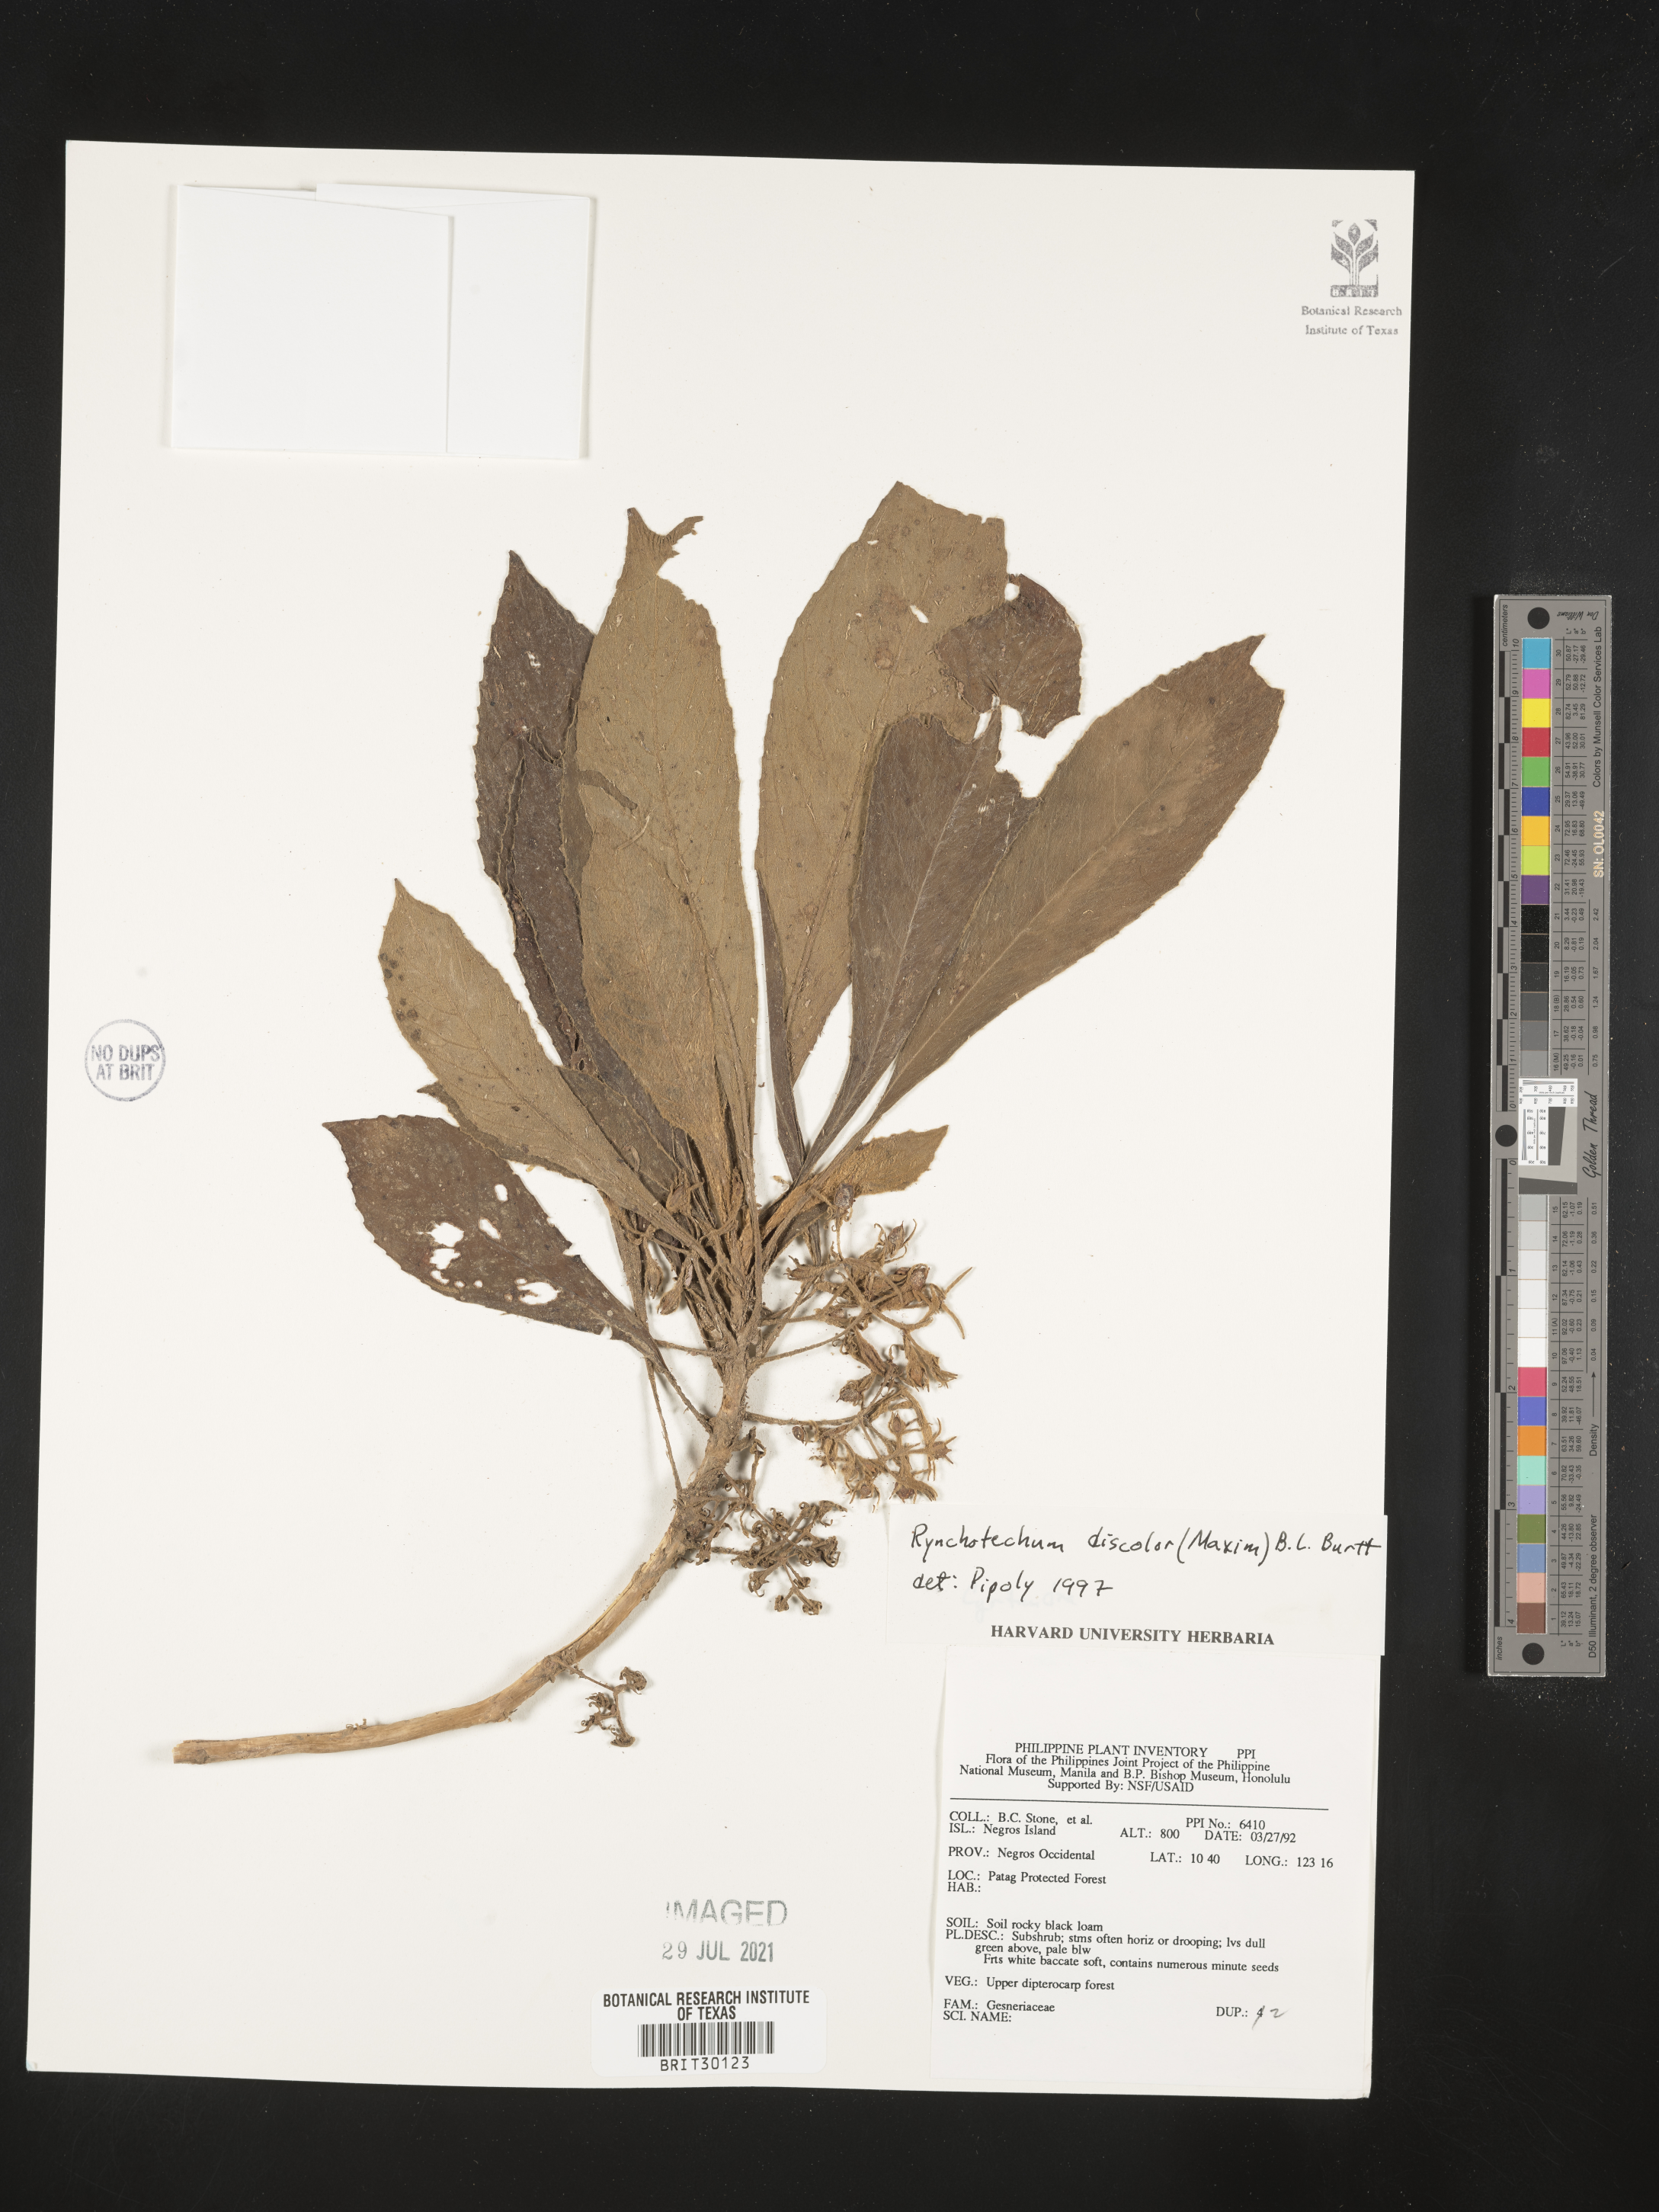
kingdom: Plantae
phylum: Tracheophyta
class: Magnoliopsida
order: Lamiales
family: Gesneriaceae
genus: Rhynchotechum
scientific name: Rhynchotechum discolor
